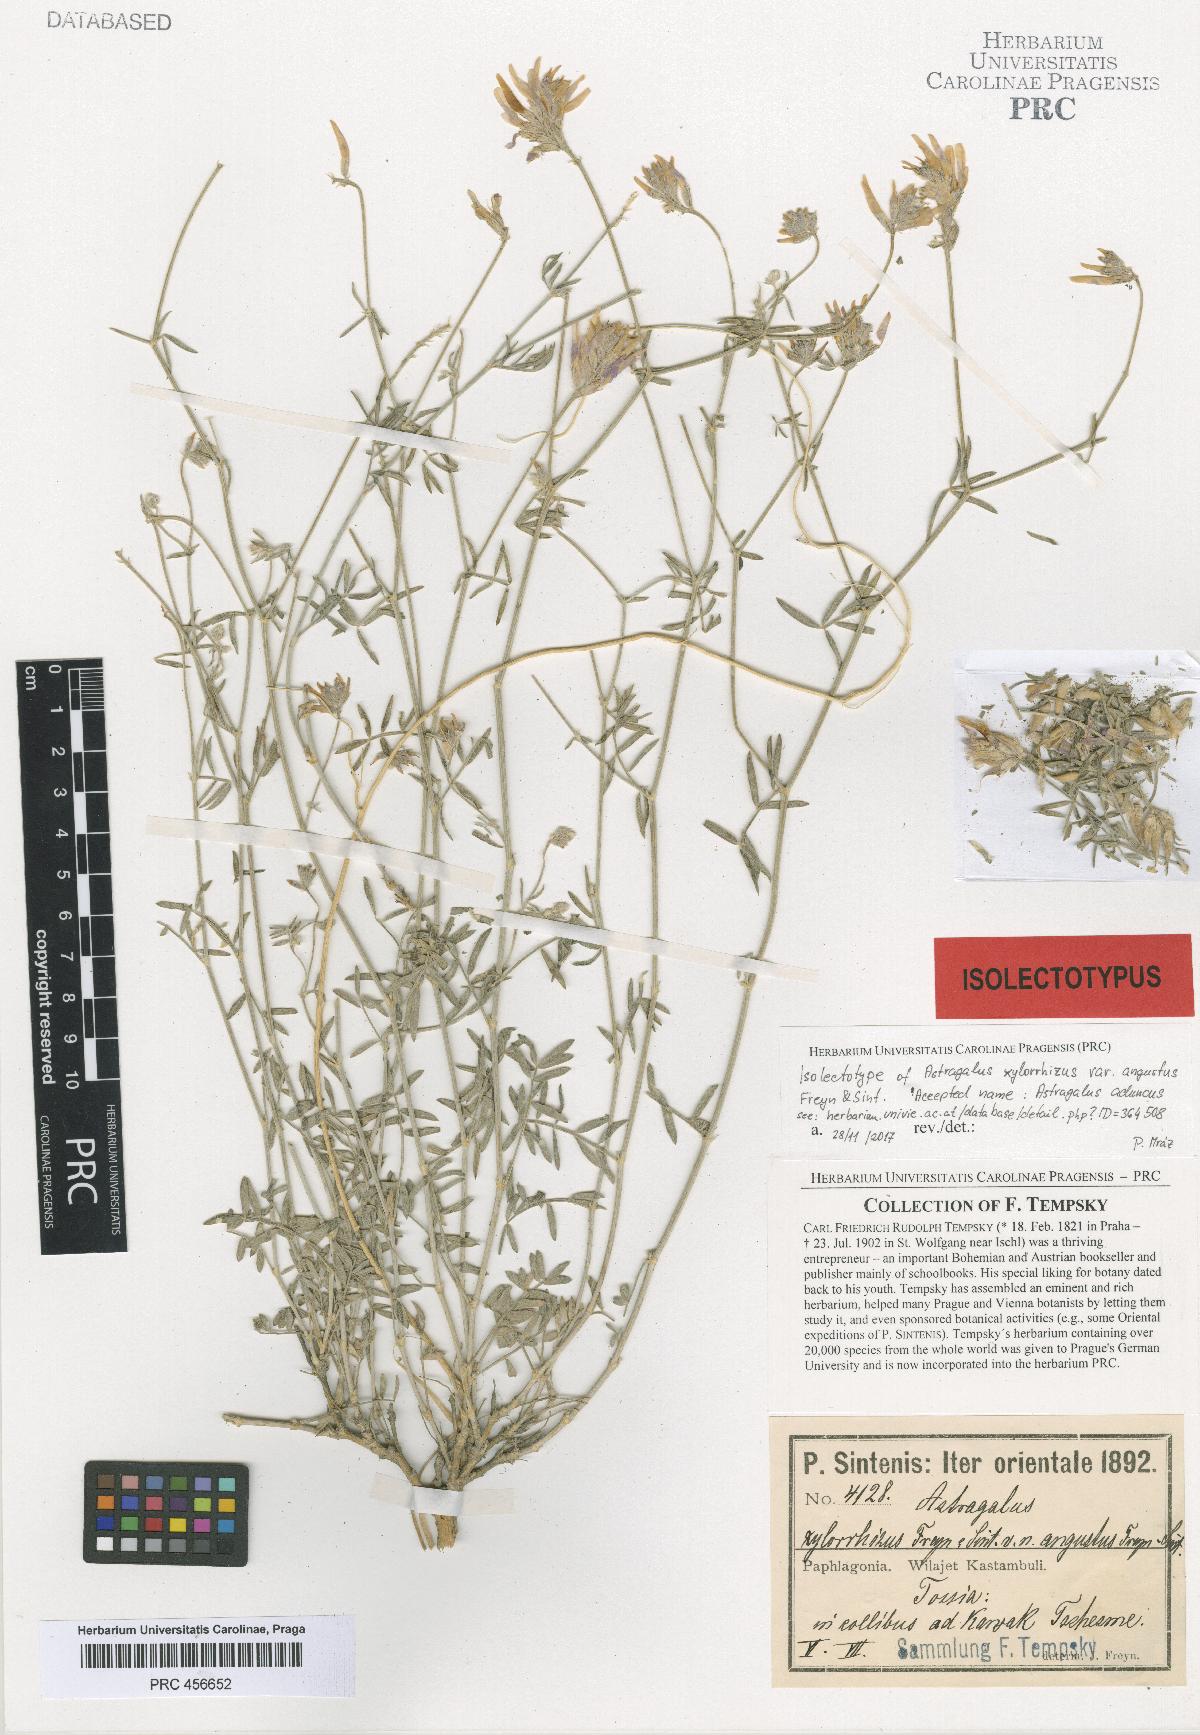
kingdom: Plantae
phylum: Tracheophyta
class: Magnoliopsida
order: Fabales
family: Fabaceae
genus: Astragalus
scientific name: Astragalus aduncus
